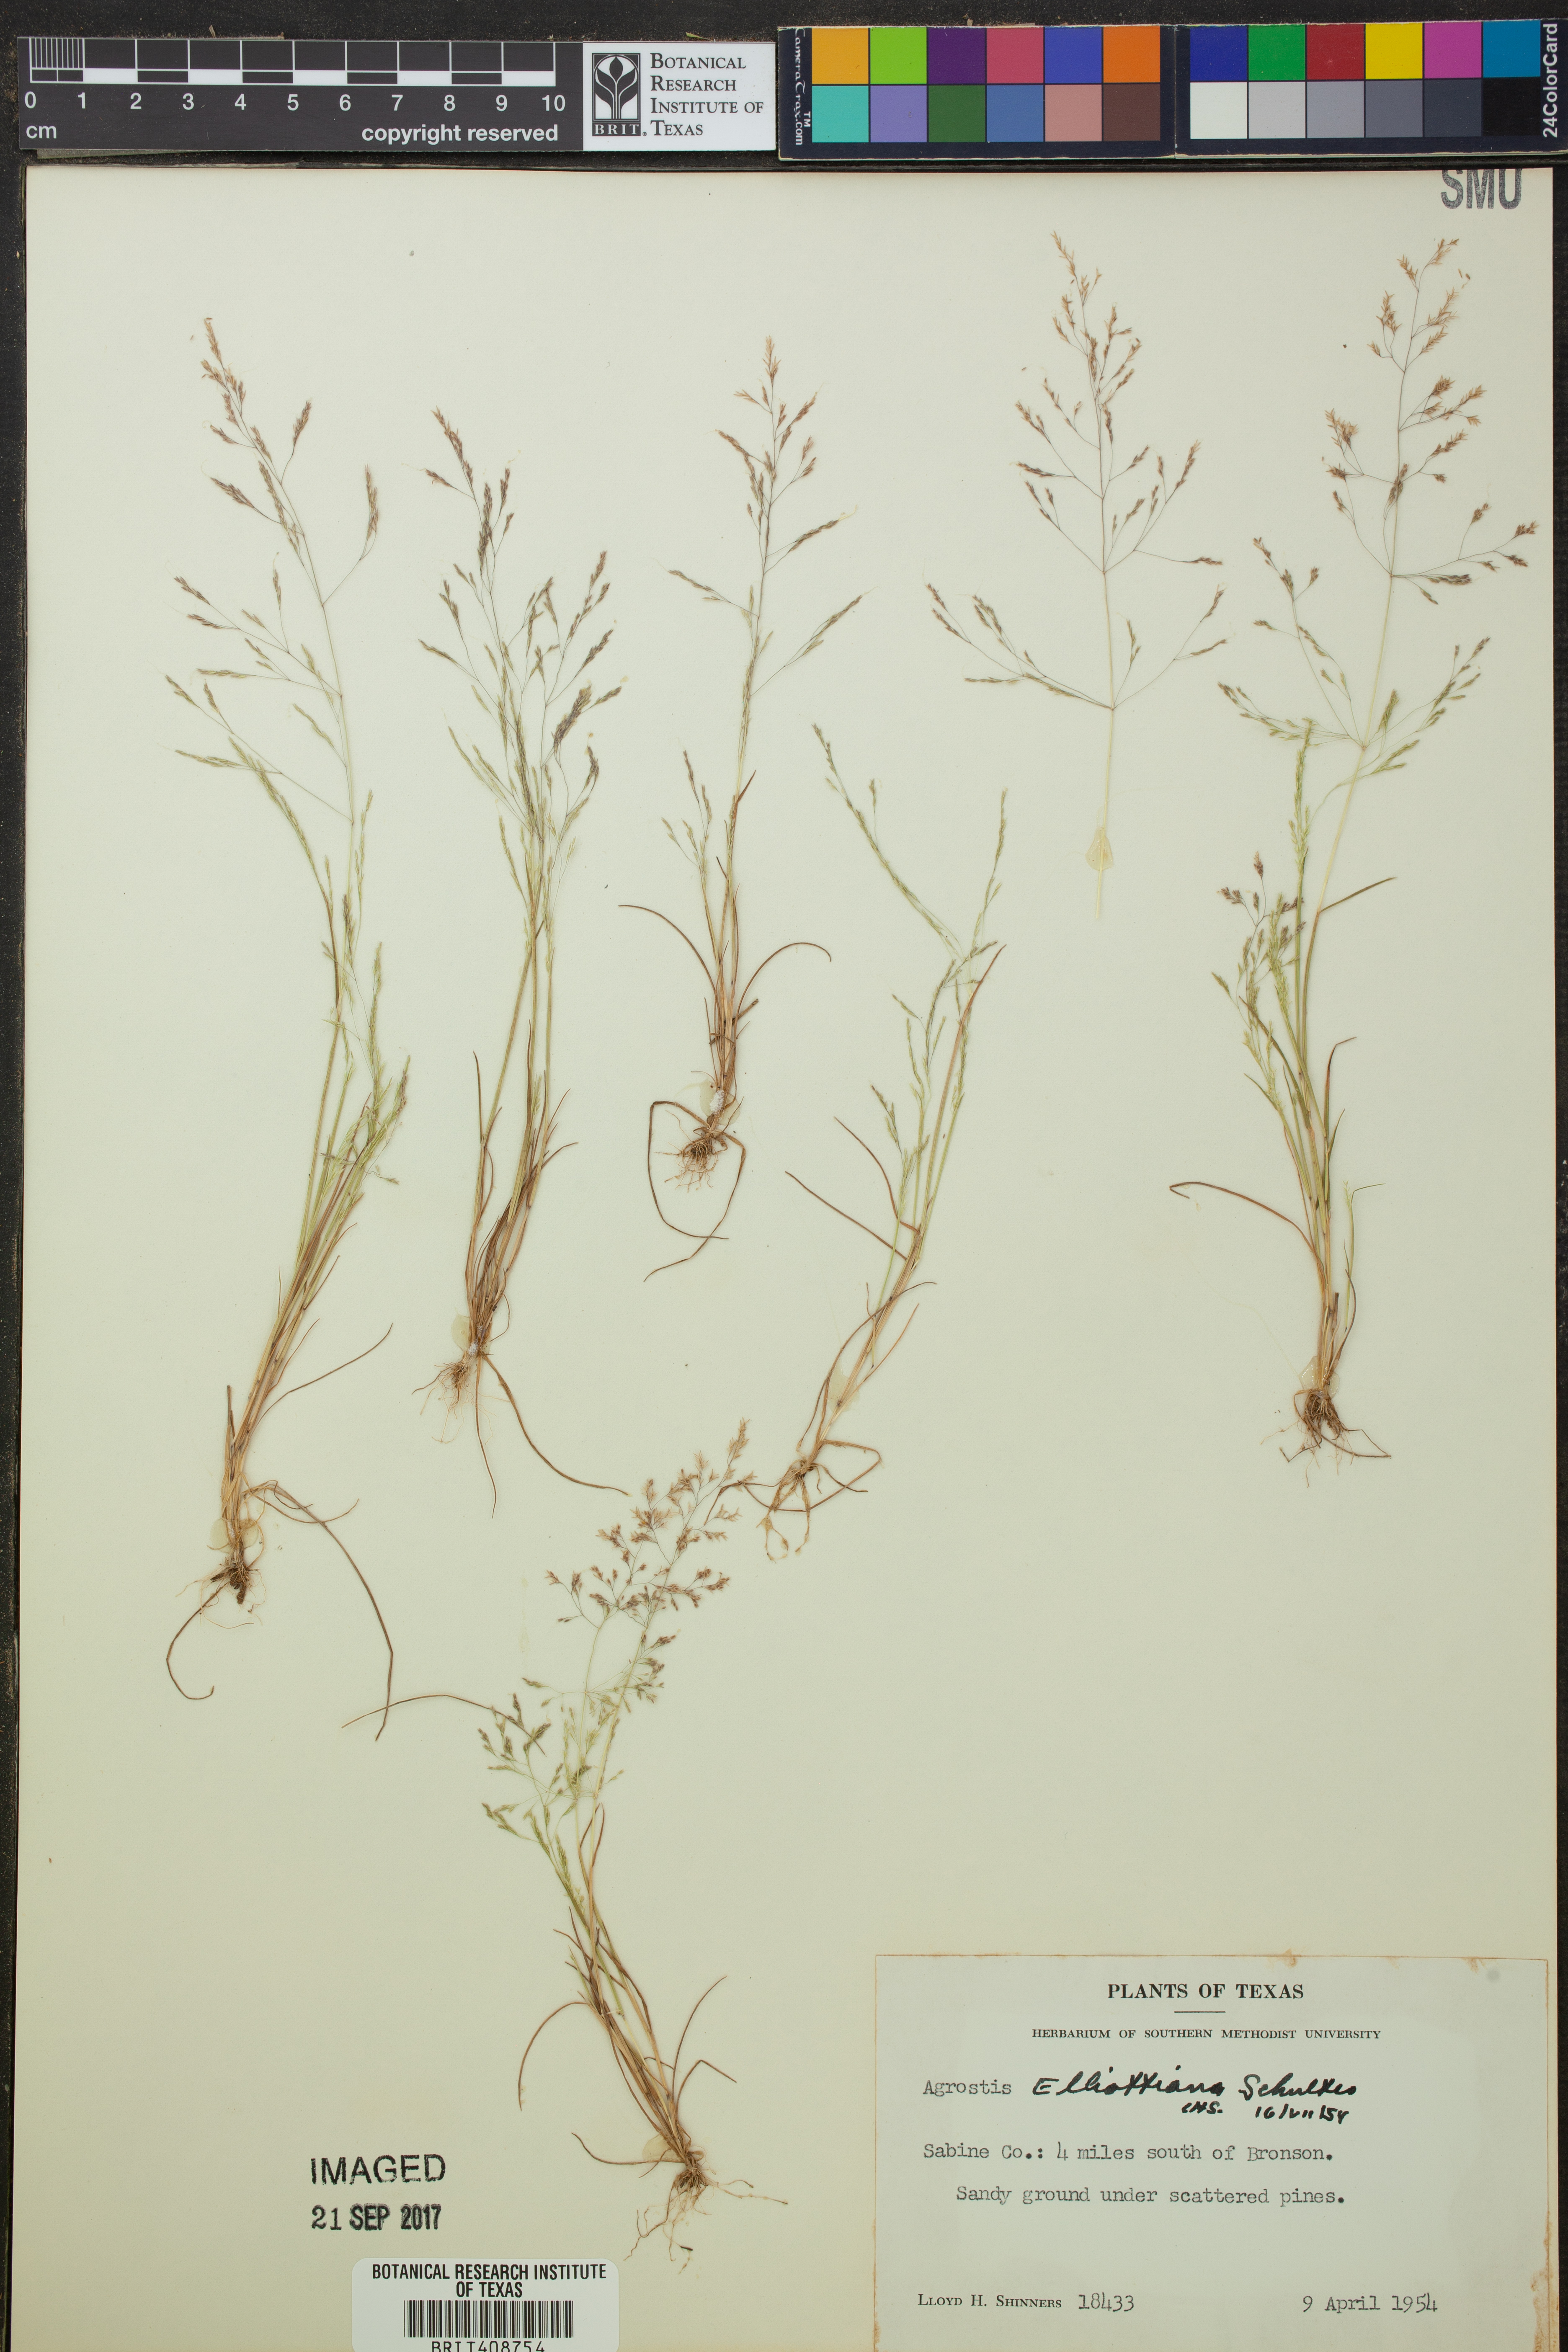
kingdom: Plantae
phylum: Tracheophyta
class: Liliopsida
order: Poales
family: Poaceae
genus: Agrostis
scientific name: Agrostis elliottiana
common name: Elliott's bent
